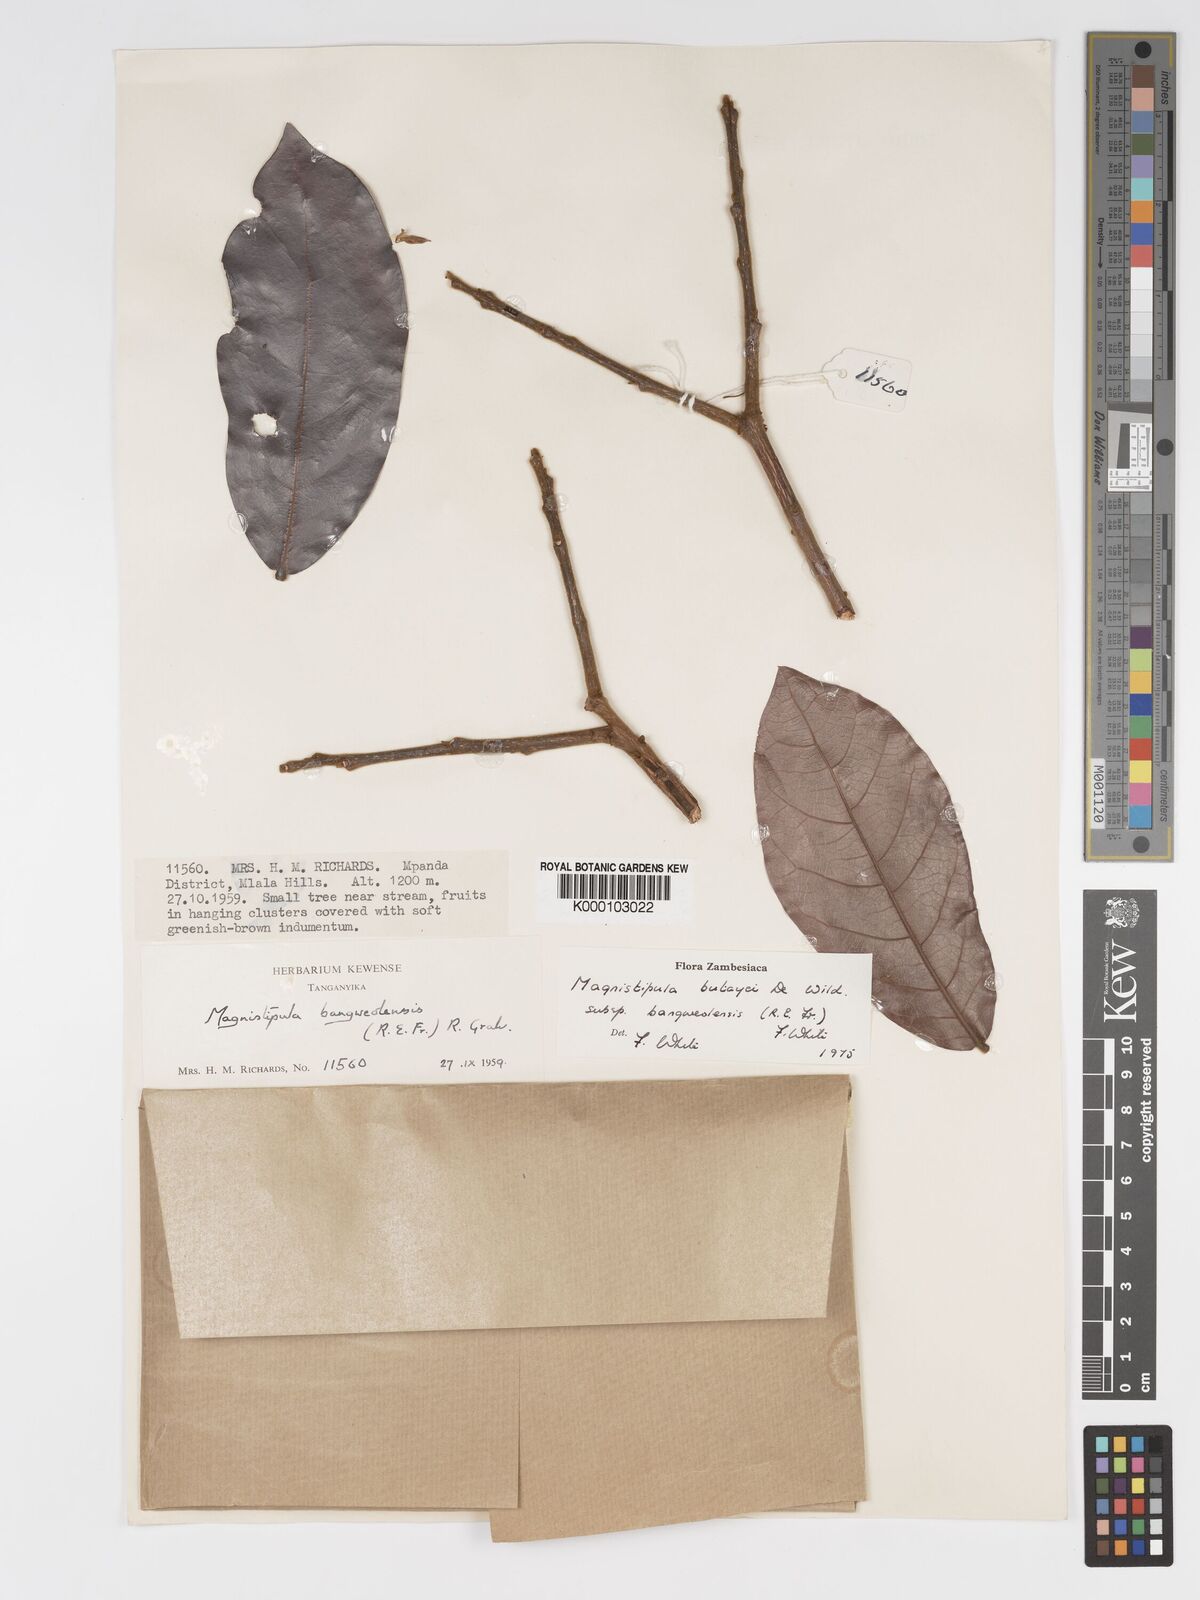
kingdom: Plantae
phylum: Tracheophyta
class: Magnoliopsida
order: Malpighiales
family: Chrysobalanaceae
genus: Magnistipula
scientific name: Magnistipula butayei
